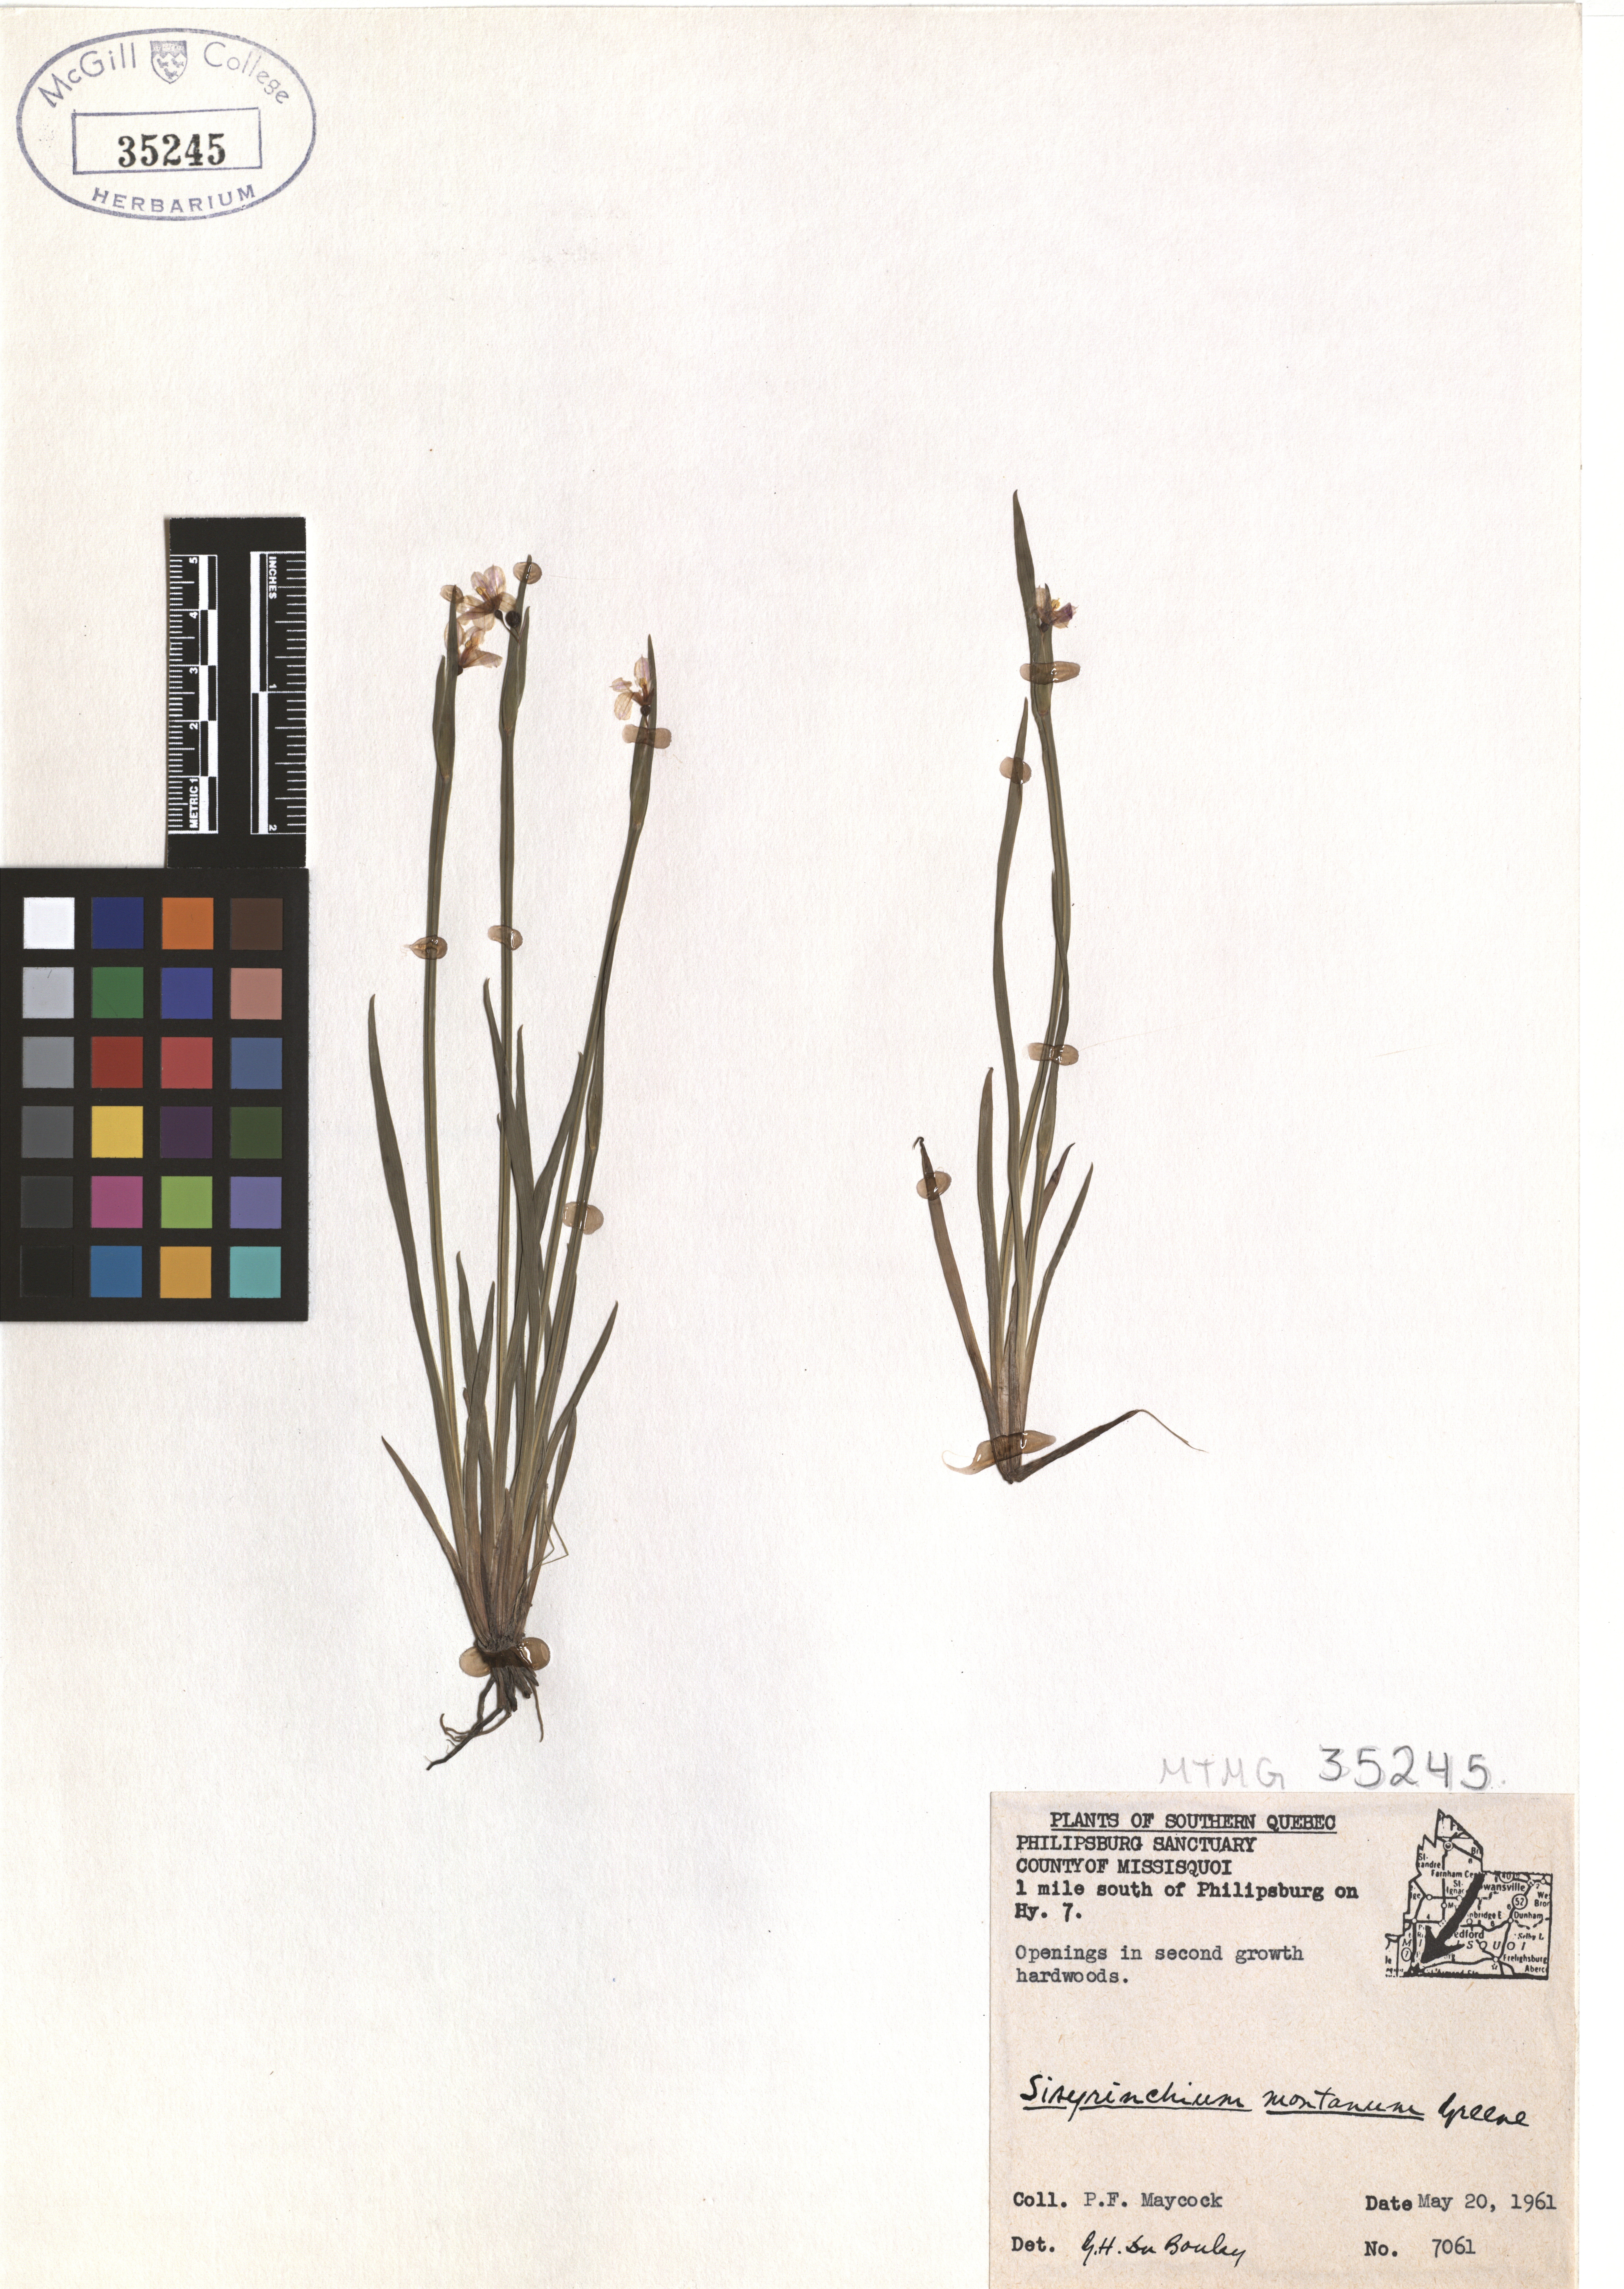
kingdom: Plantae
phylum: Tracheophyta
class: Liliopsida
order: Asparagales
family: Iridaceae
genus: Sisyrinchium
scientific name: Sisyrinchium montanum
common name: American blue-eyed-grass
